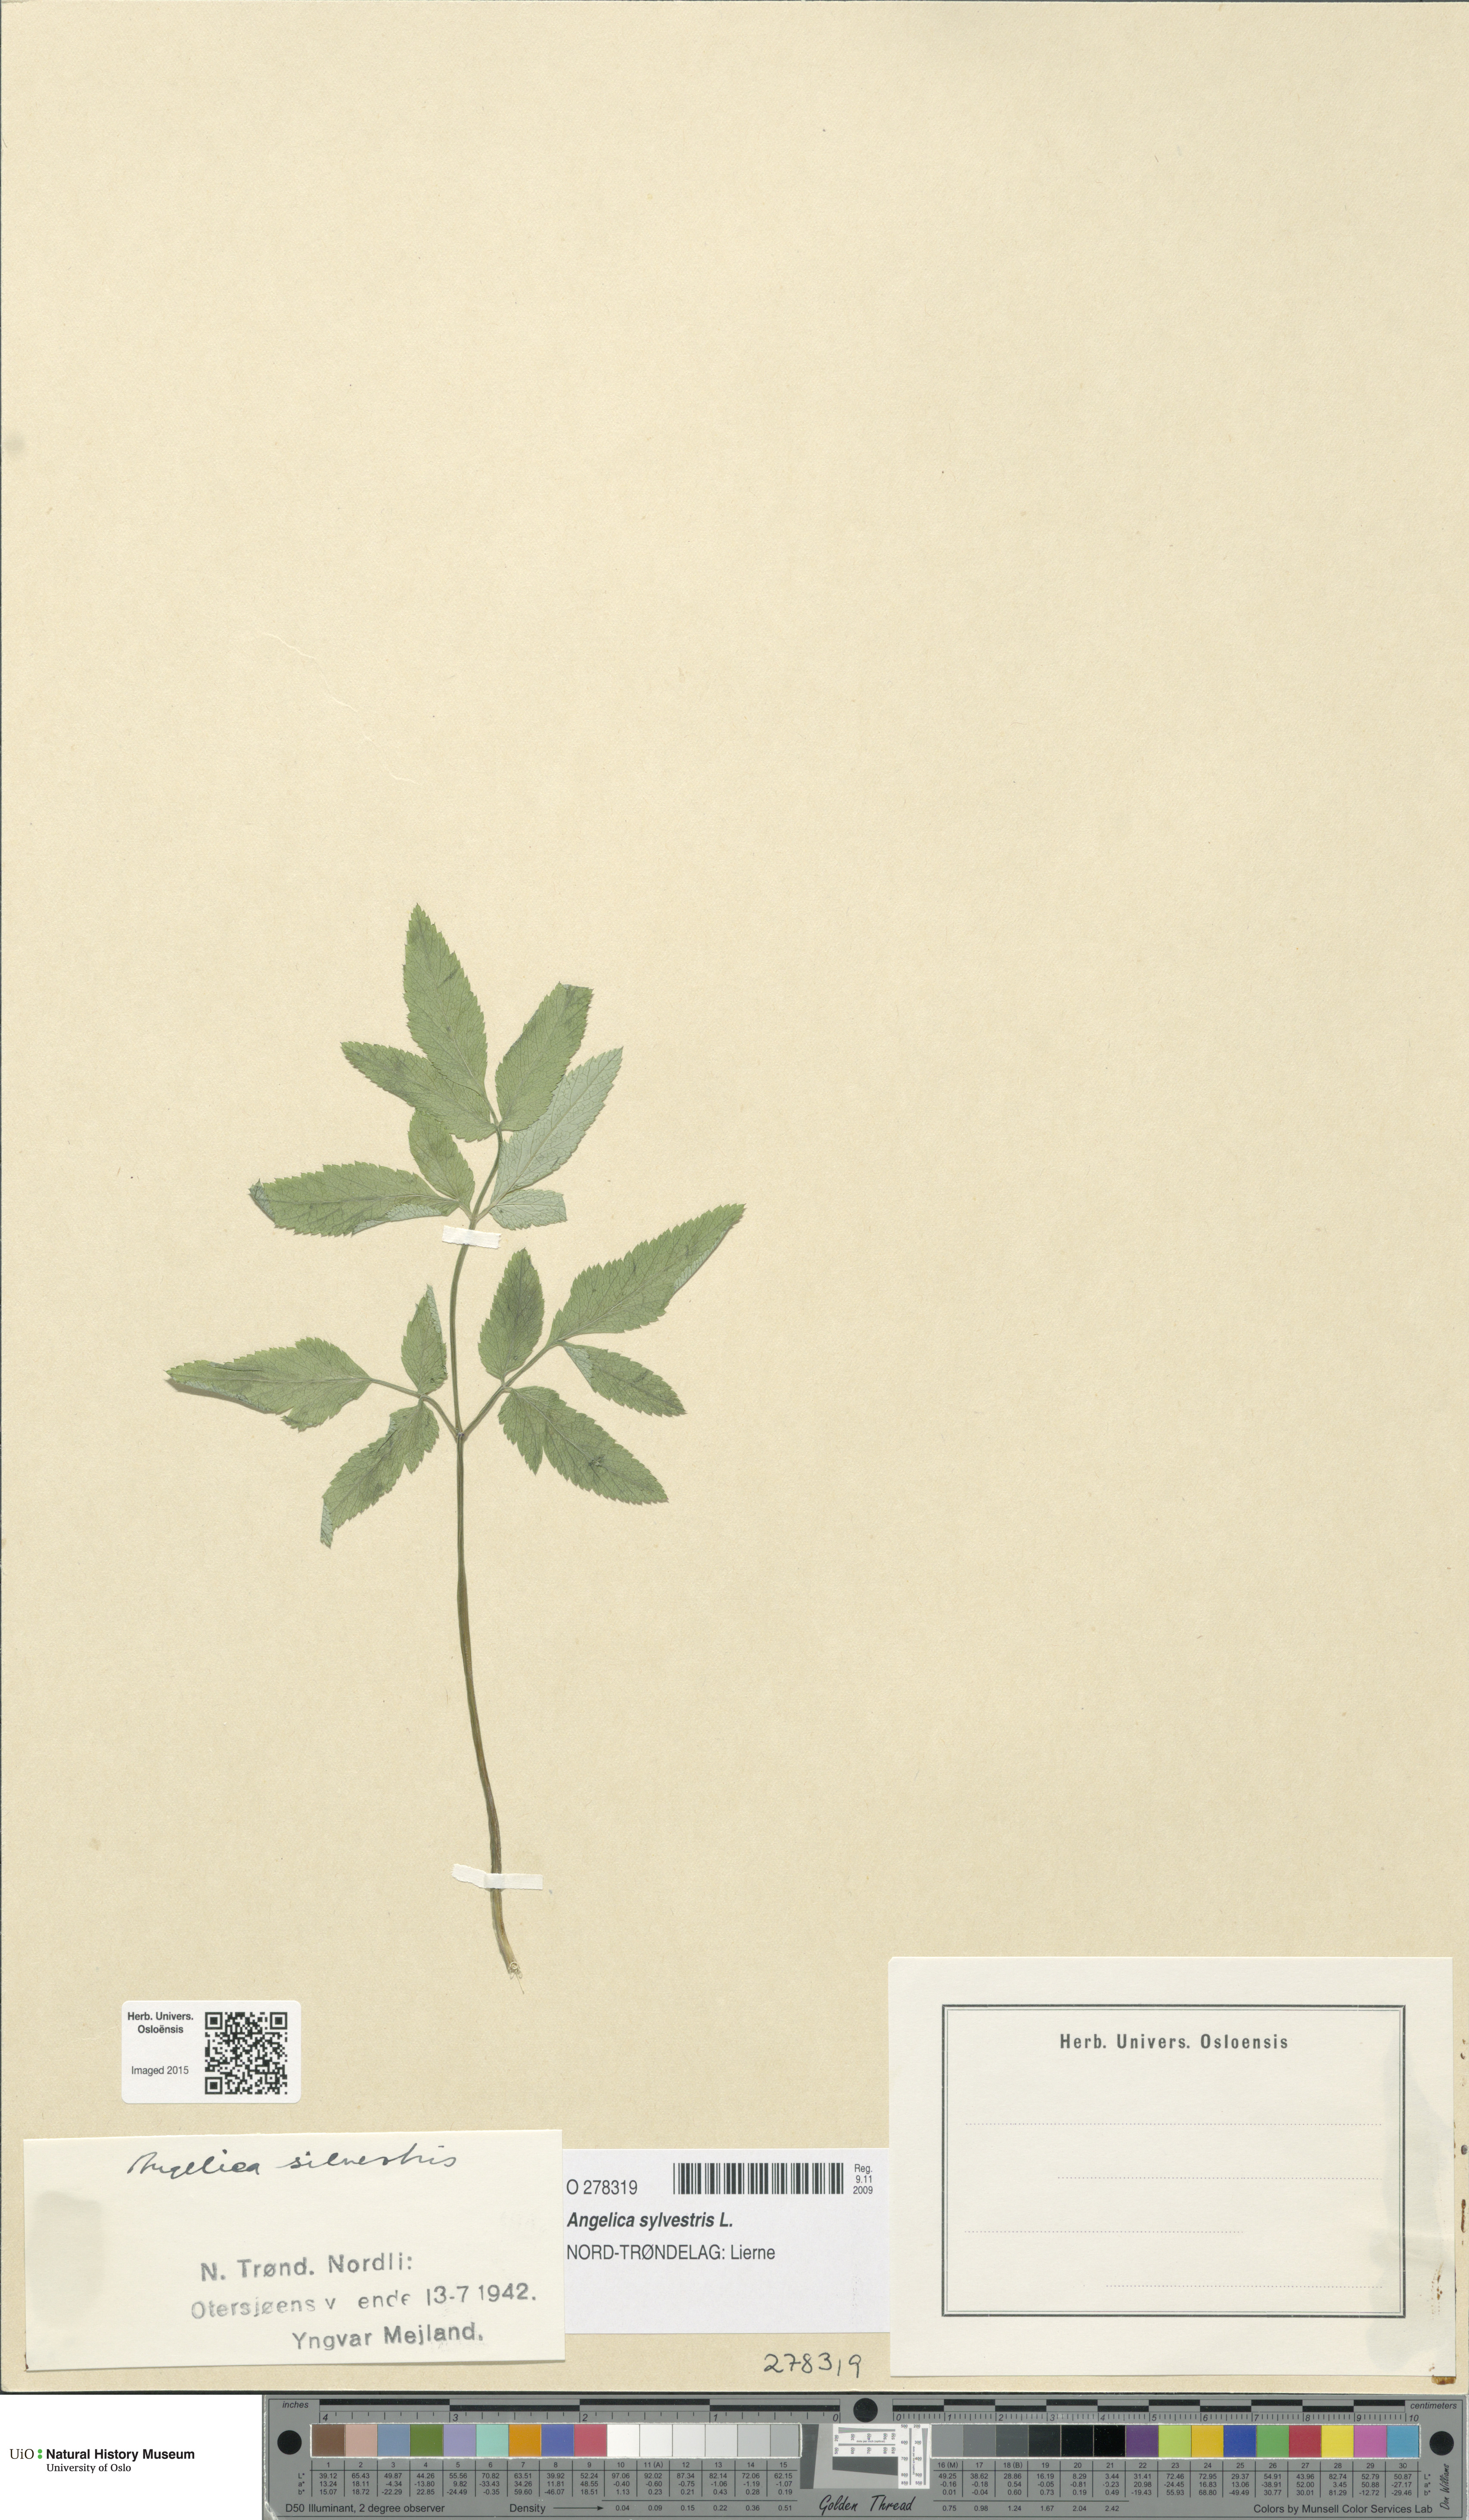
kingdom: Plantae
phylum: Tracheophyta
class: Magnoliopsida
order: Apiales
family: Apiaceae
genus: Angelica
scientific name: Angelica sylvestris
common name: Wild angelica
